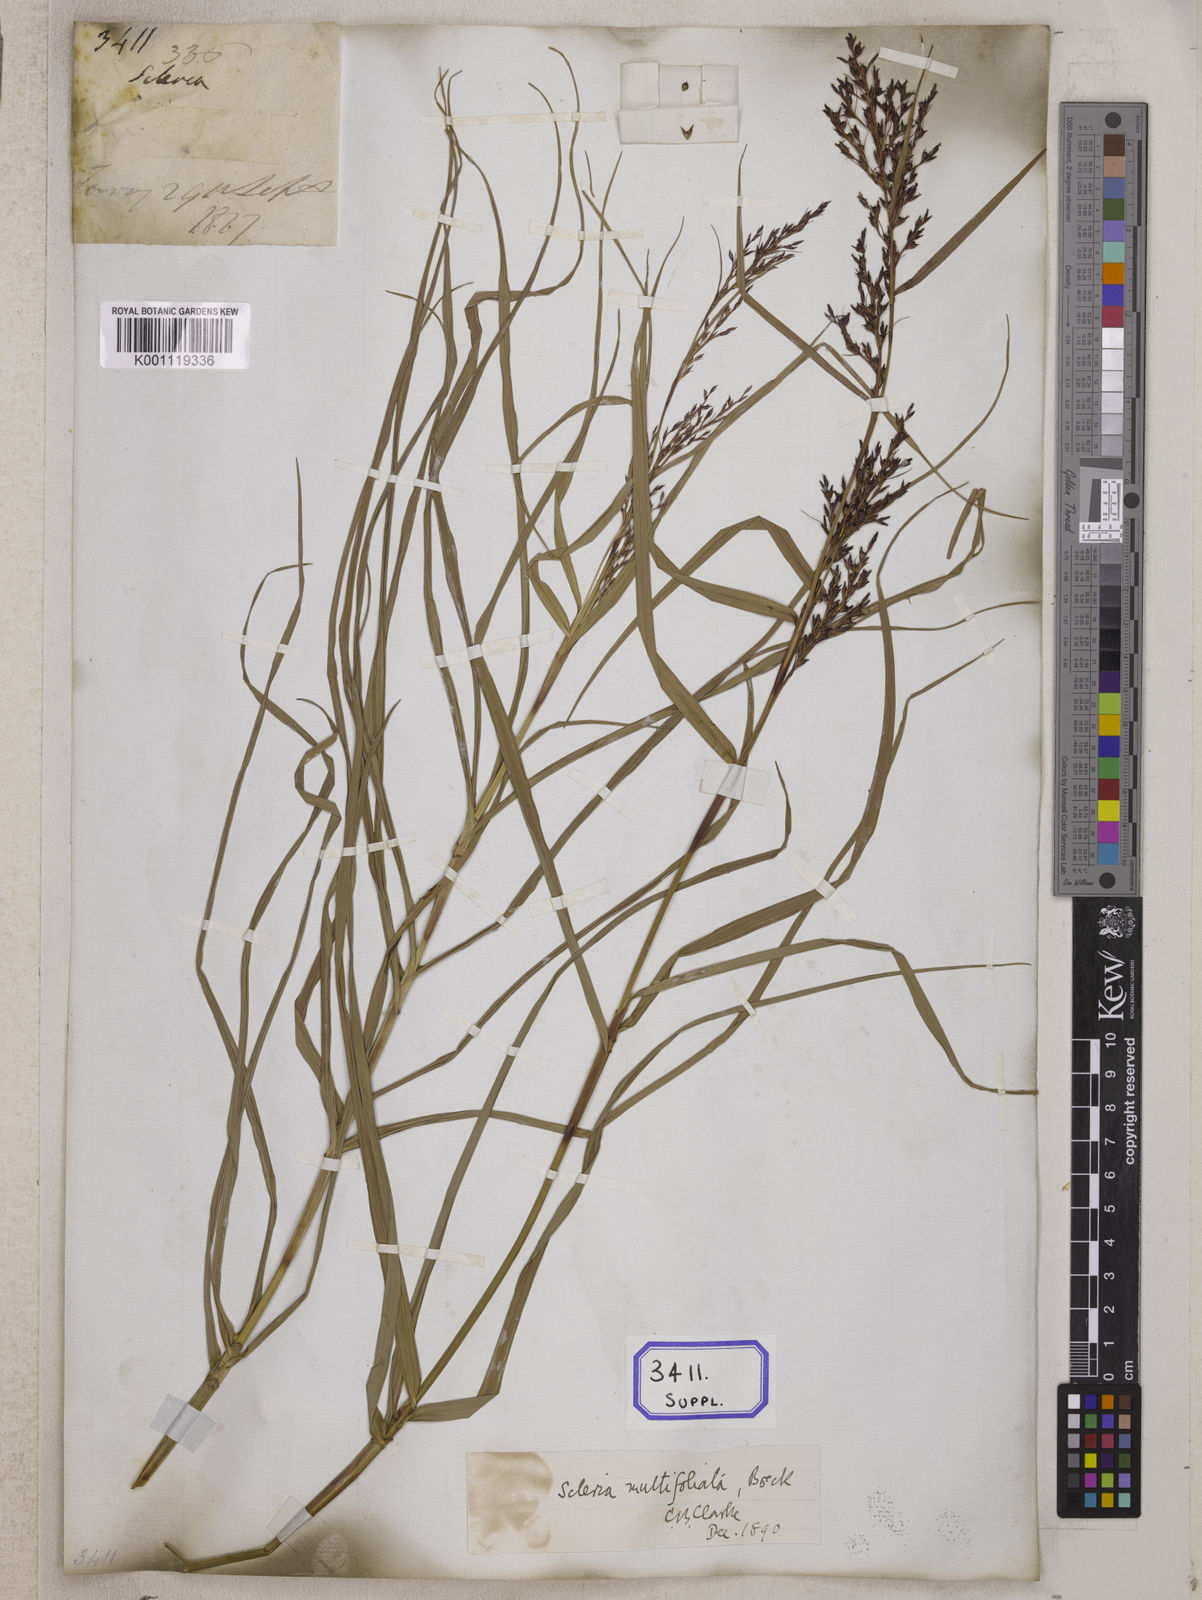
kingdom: Plantae
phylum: Tracheophyta
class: Liliopsida
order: Poales
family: Cyperaceae
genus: Scleria
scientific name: Scleria
